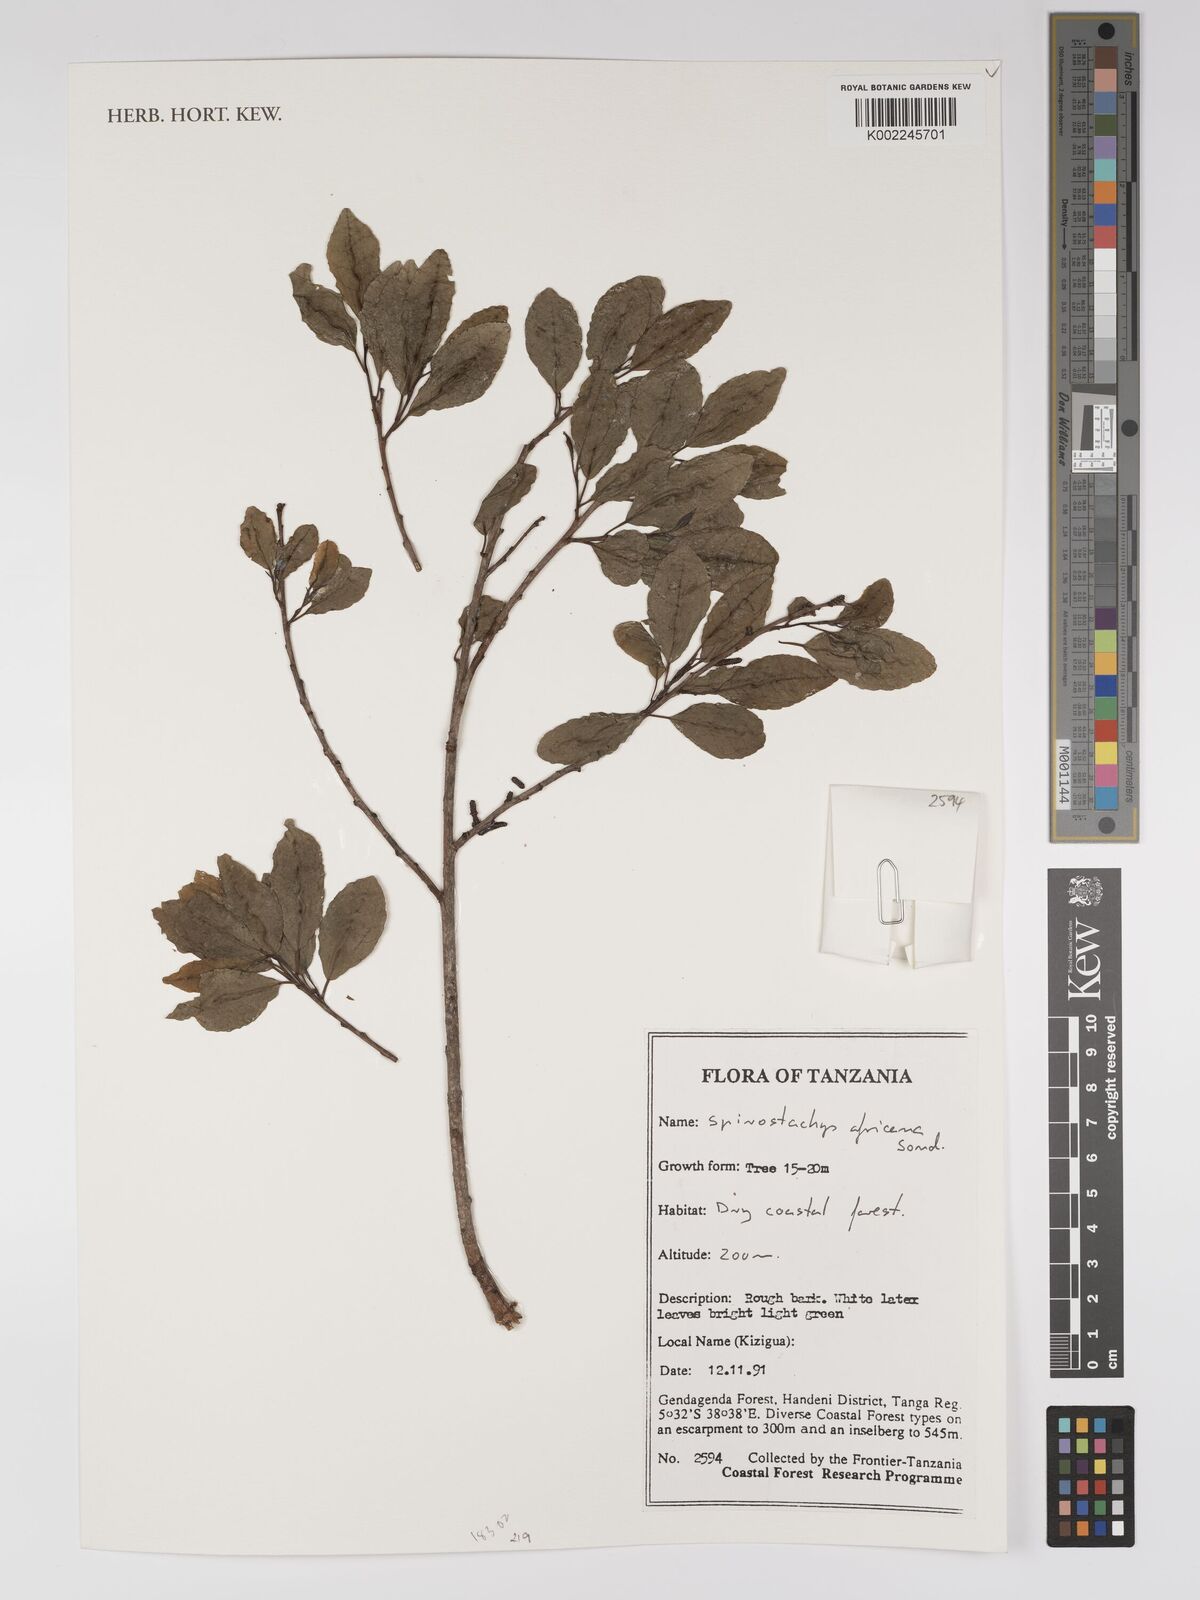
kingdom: Plantae
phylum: Tracheophyta
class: Magnoliopsida
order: Malpighiales
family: Euphorbiaceae
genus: Spirostachys
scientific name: Spirostachys africana
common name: Tamboti
